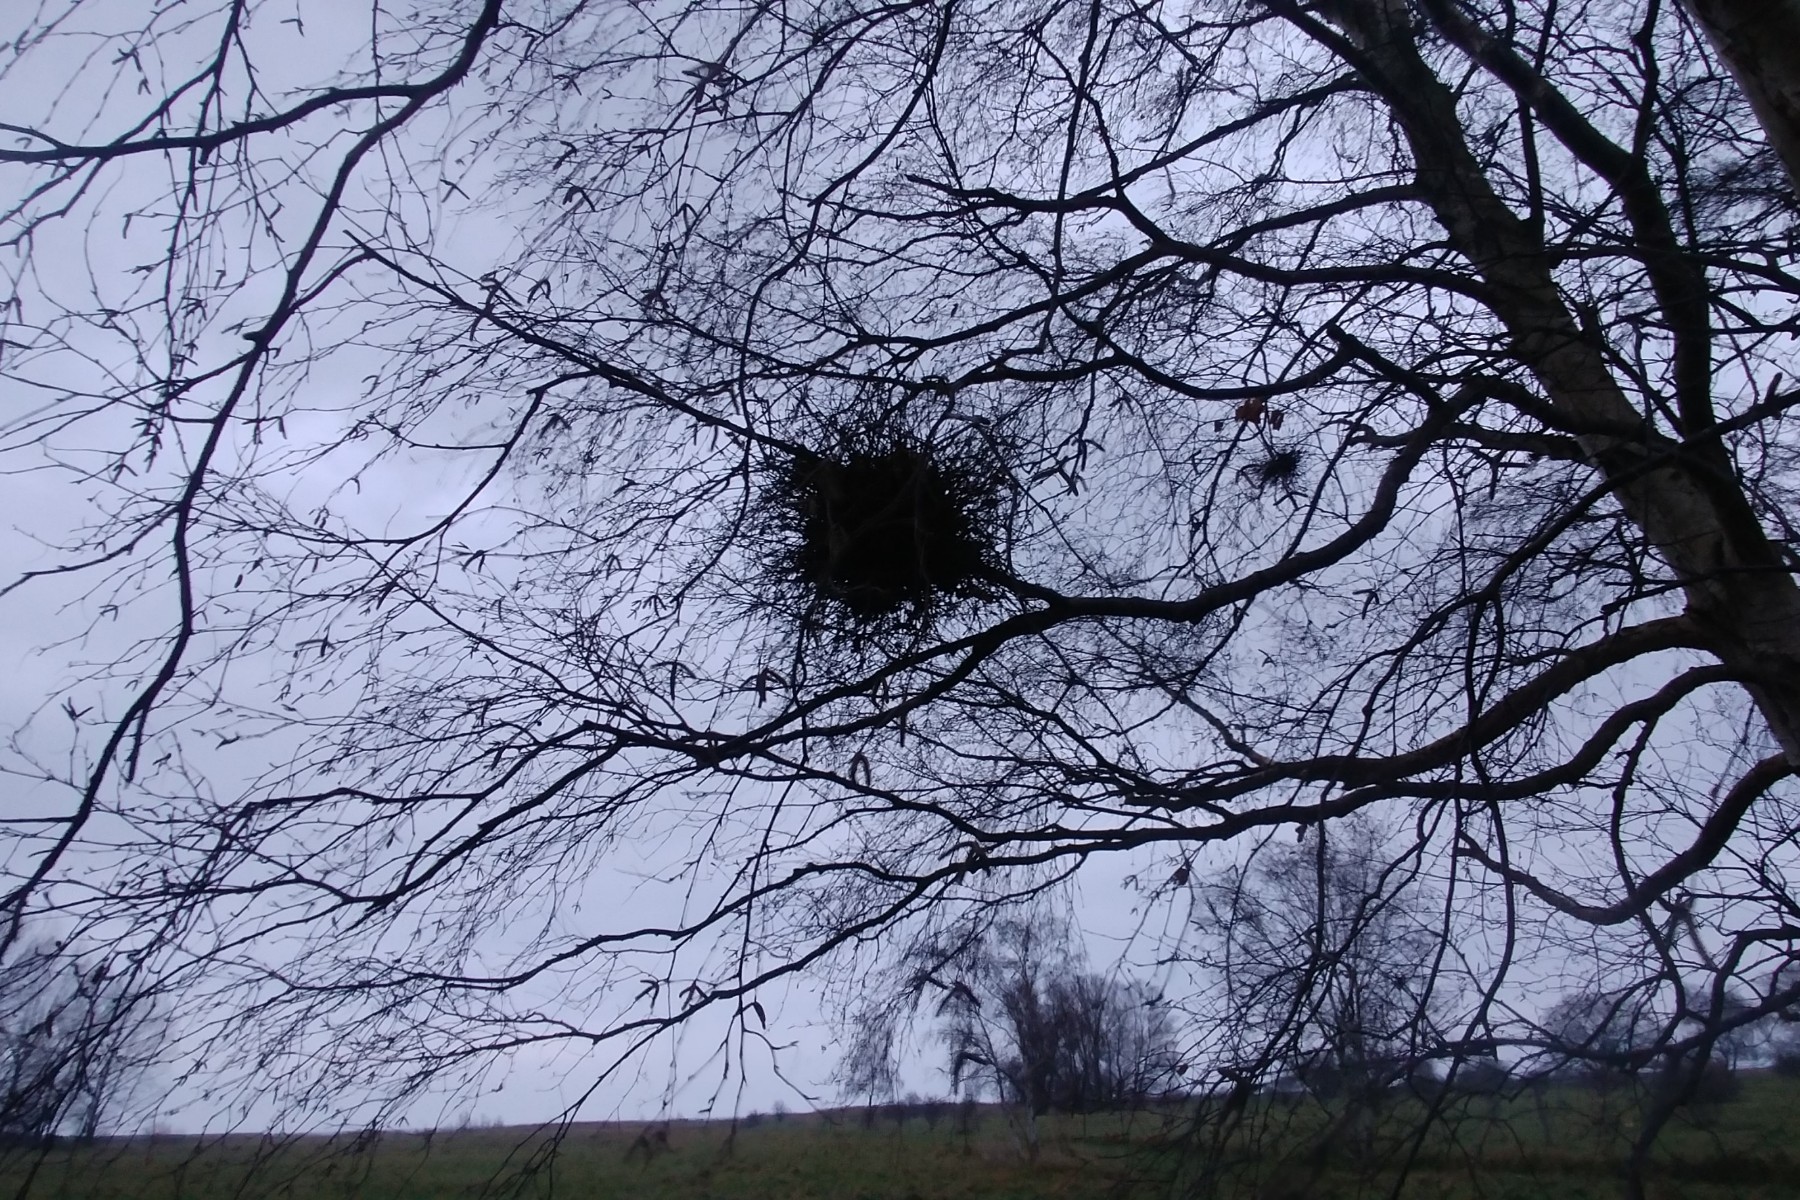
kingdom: Fungi
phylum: Ascomycota
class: Taphrinomycetes
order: Taphrinales
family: Taphrinaceae
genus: Taphrina
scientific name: Taphrina betulina
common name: hekse-sækdug
